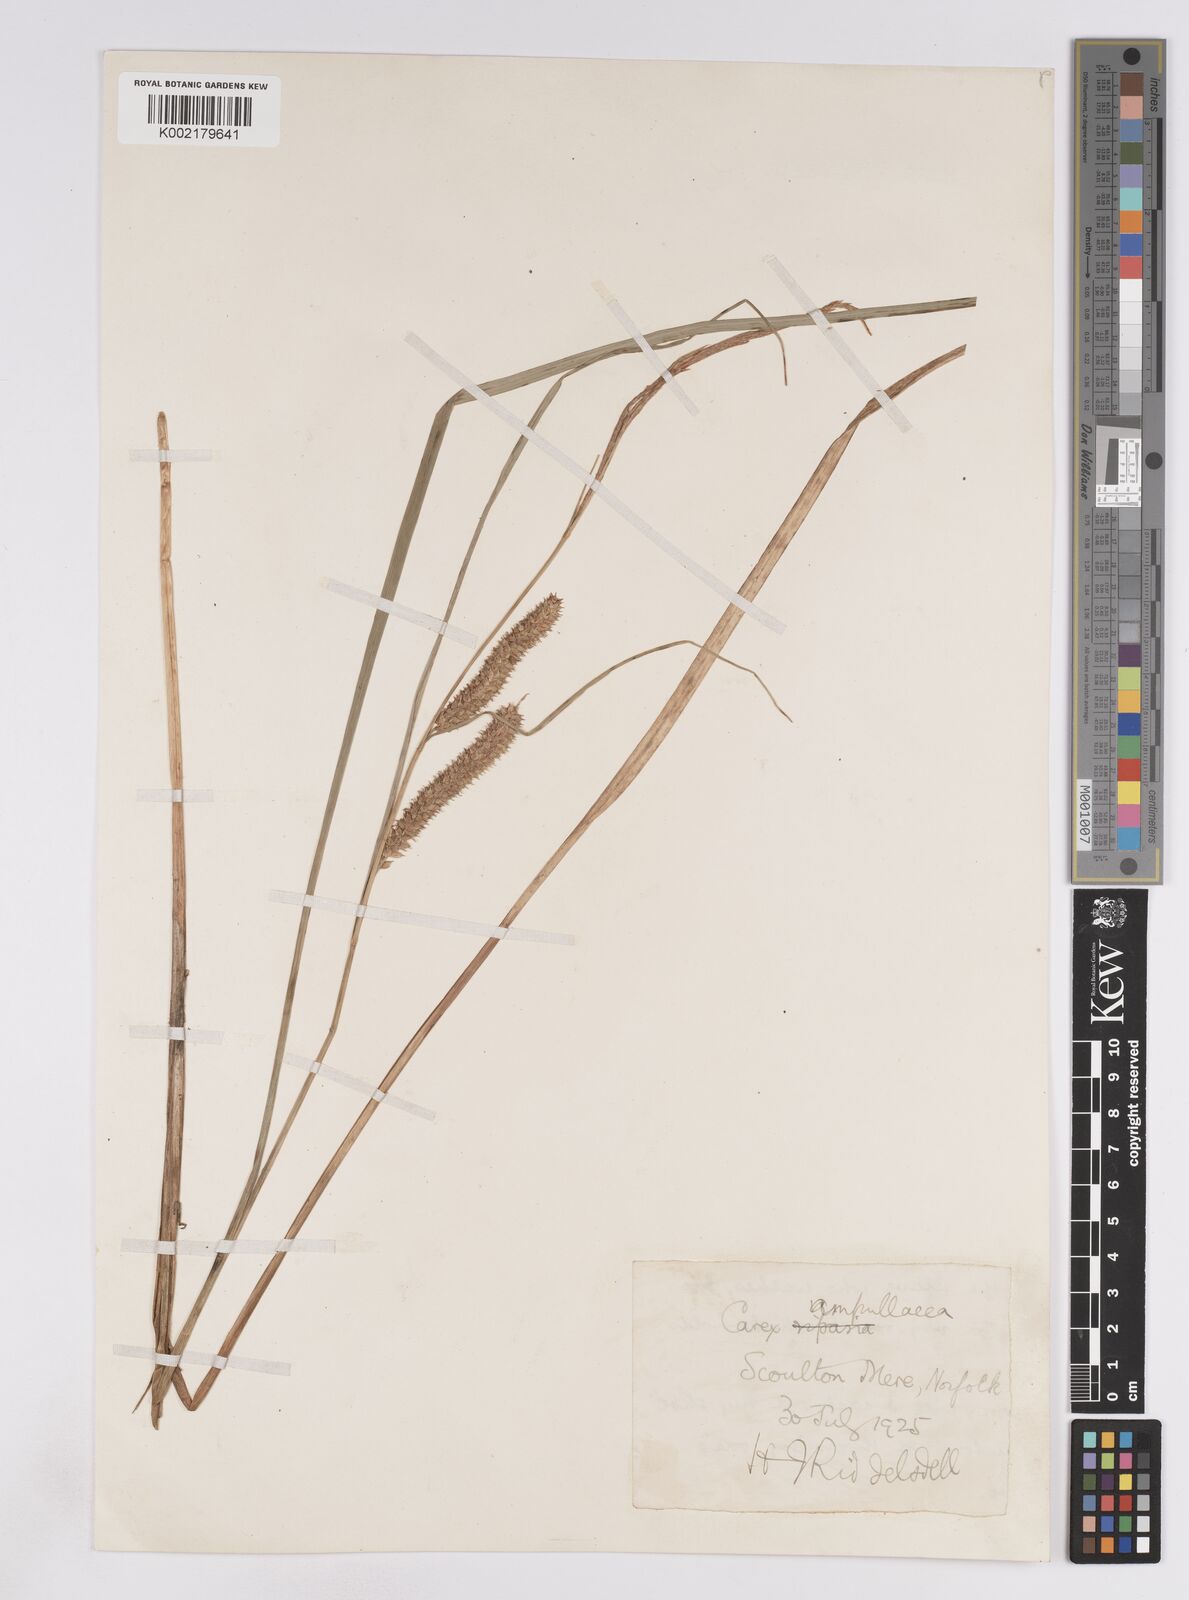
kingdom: Plantae
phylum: Tracheophyta
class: Liliopsida
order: Poales
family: Cyperaceae
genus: Carex
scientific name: Carex rostrata
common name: Bottle sedge
